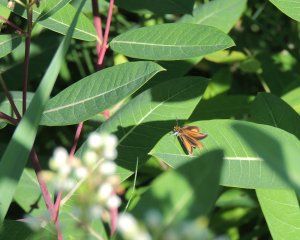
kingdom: Animalia
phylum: Arthropoda
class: Insecta
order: Lepidoptera
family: Hesperiidae
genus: Ancyloxypha
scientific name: Ancyloxypha numitor
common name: Least Skipper
